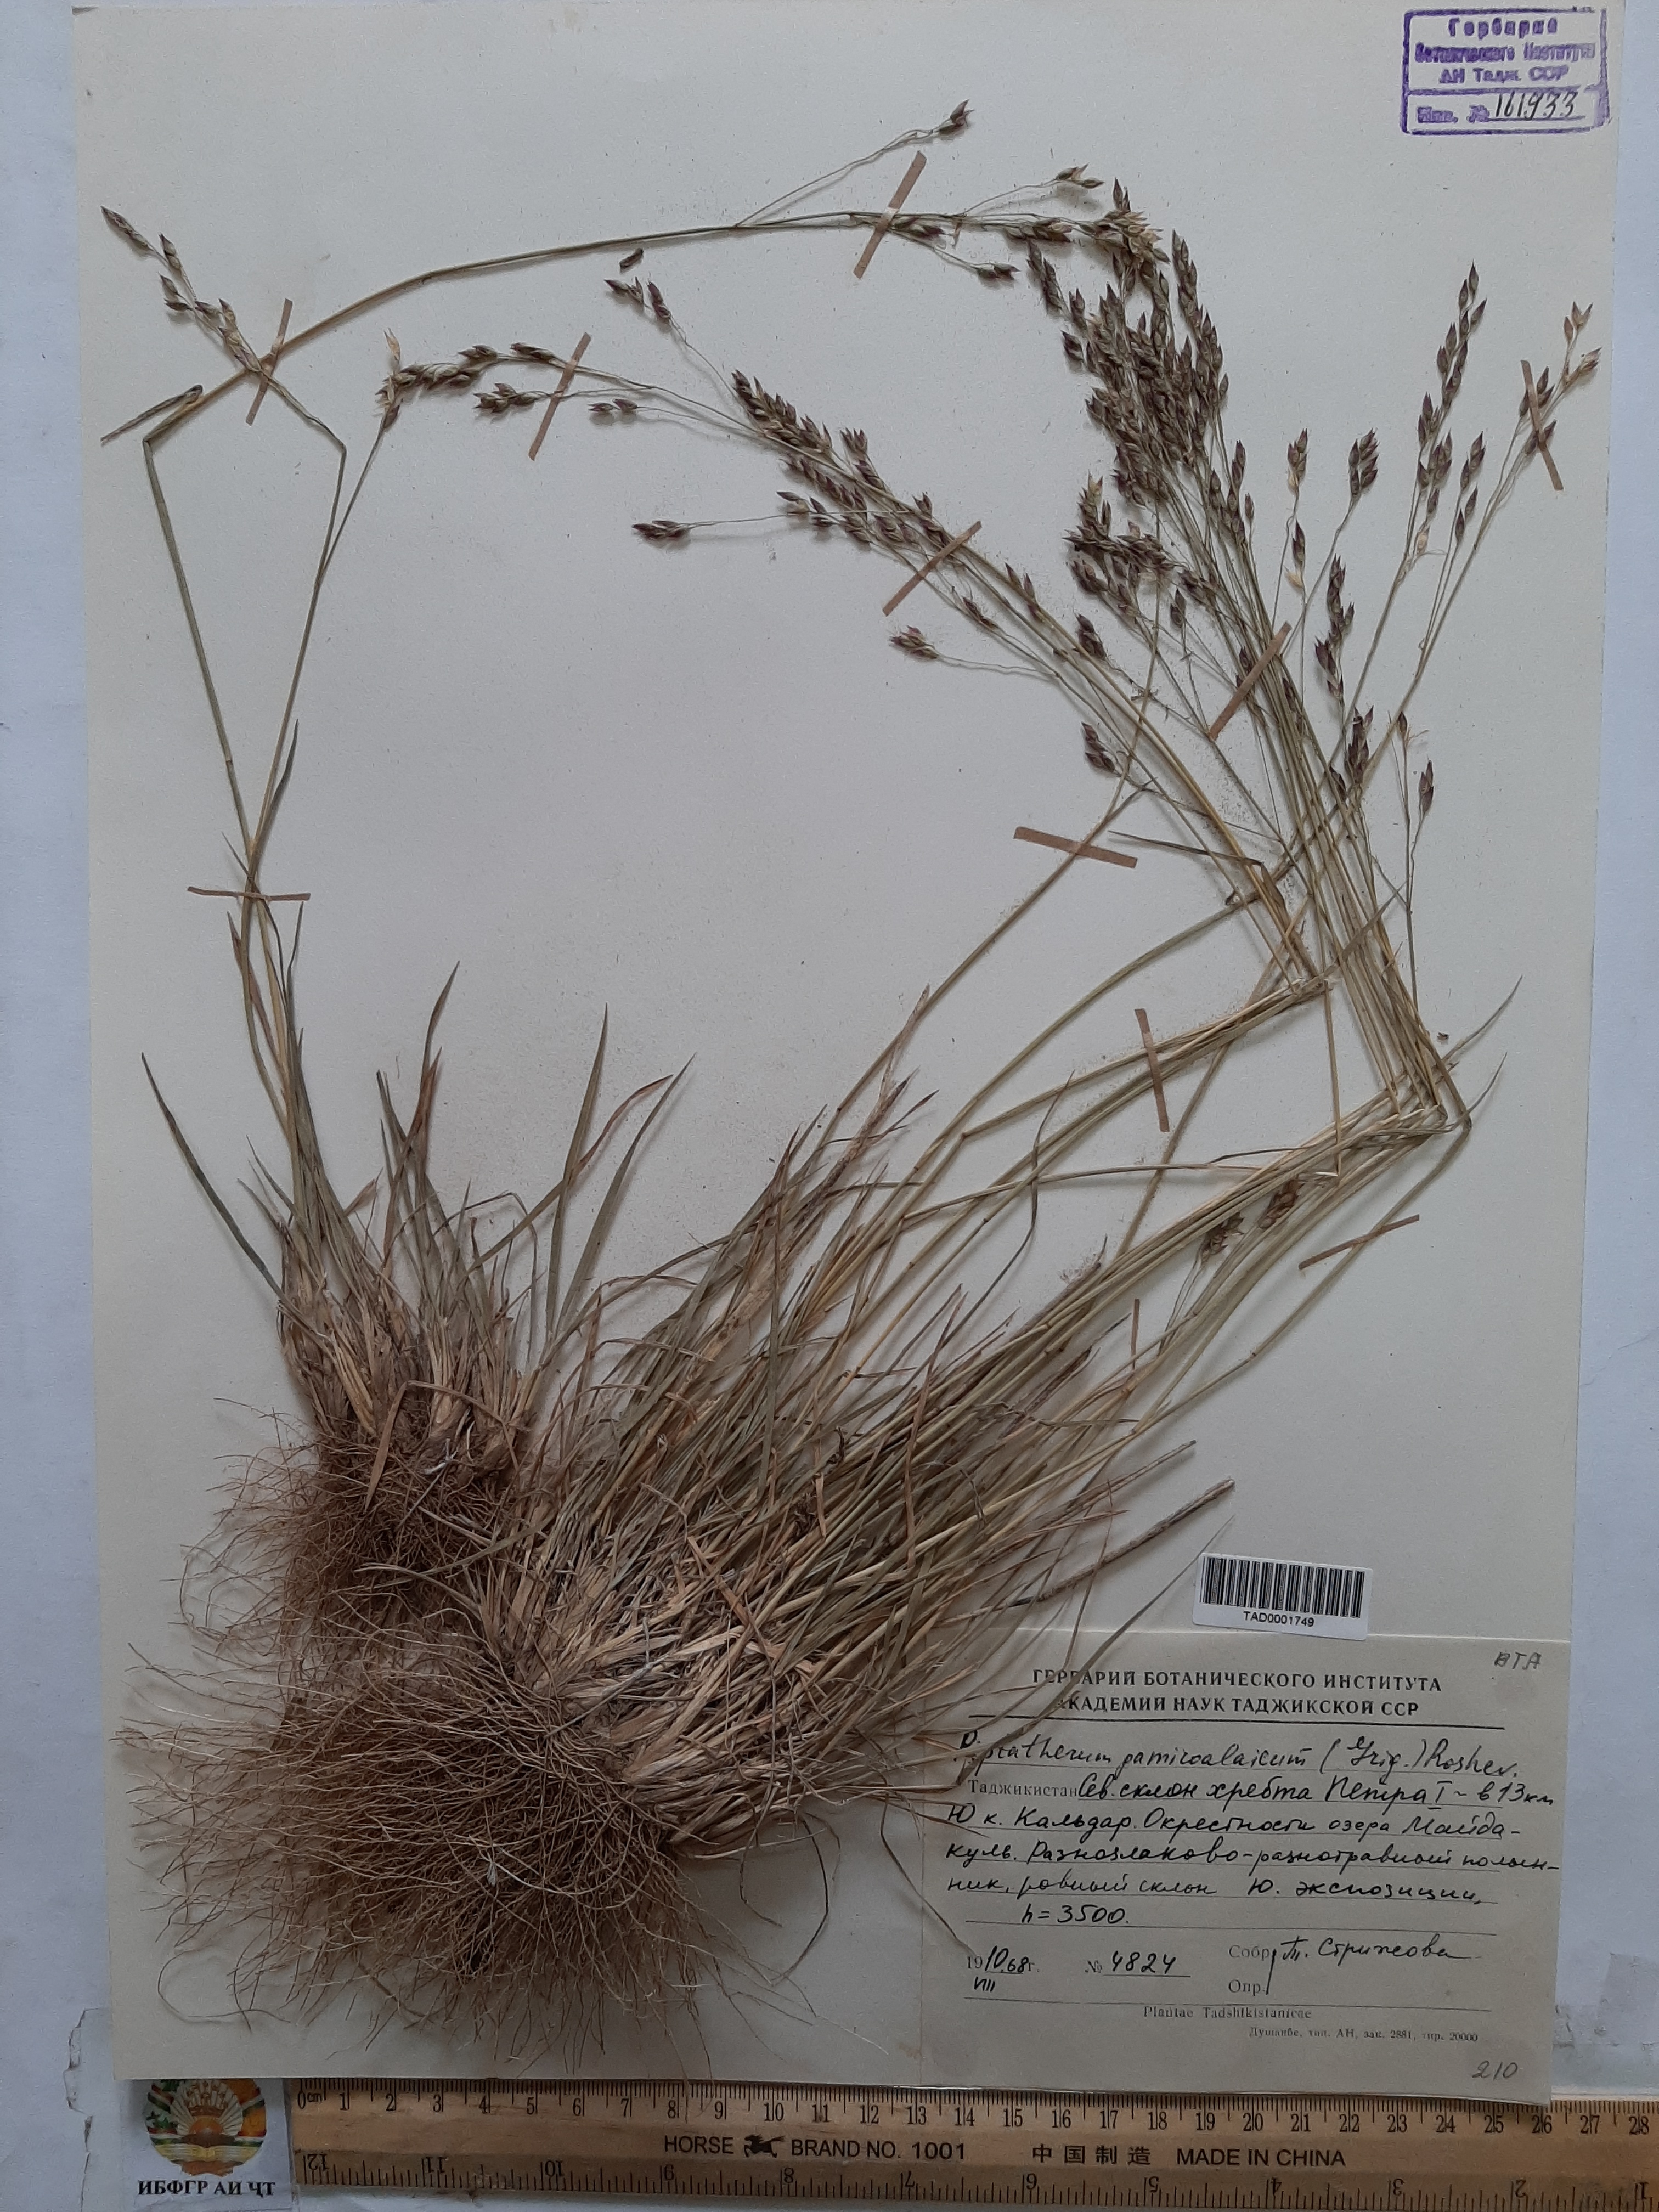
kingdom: Plantae
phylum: Tracheophyta
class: Liliopsida
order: Poales
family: Poaceae
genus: Piptatherum
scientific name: Piptatherum pamiralaicum
